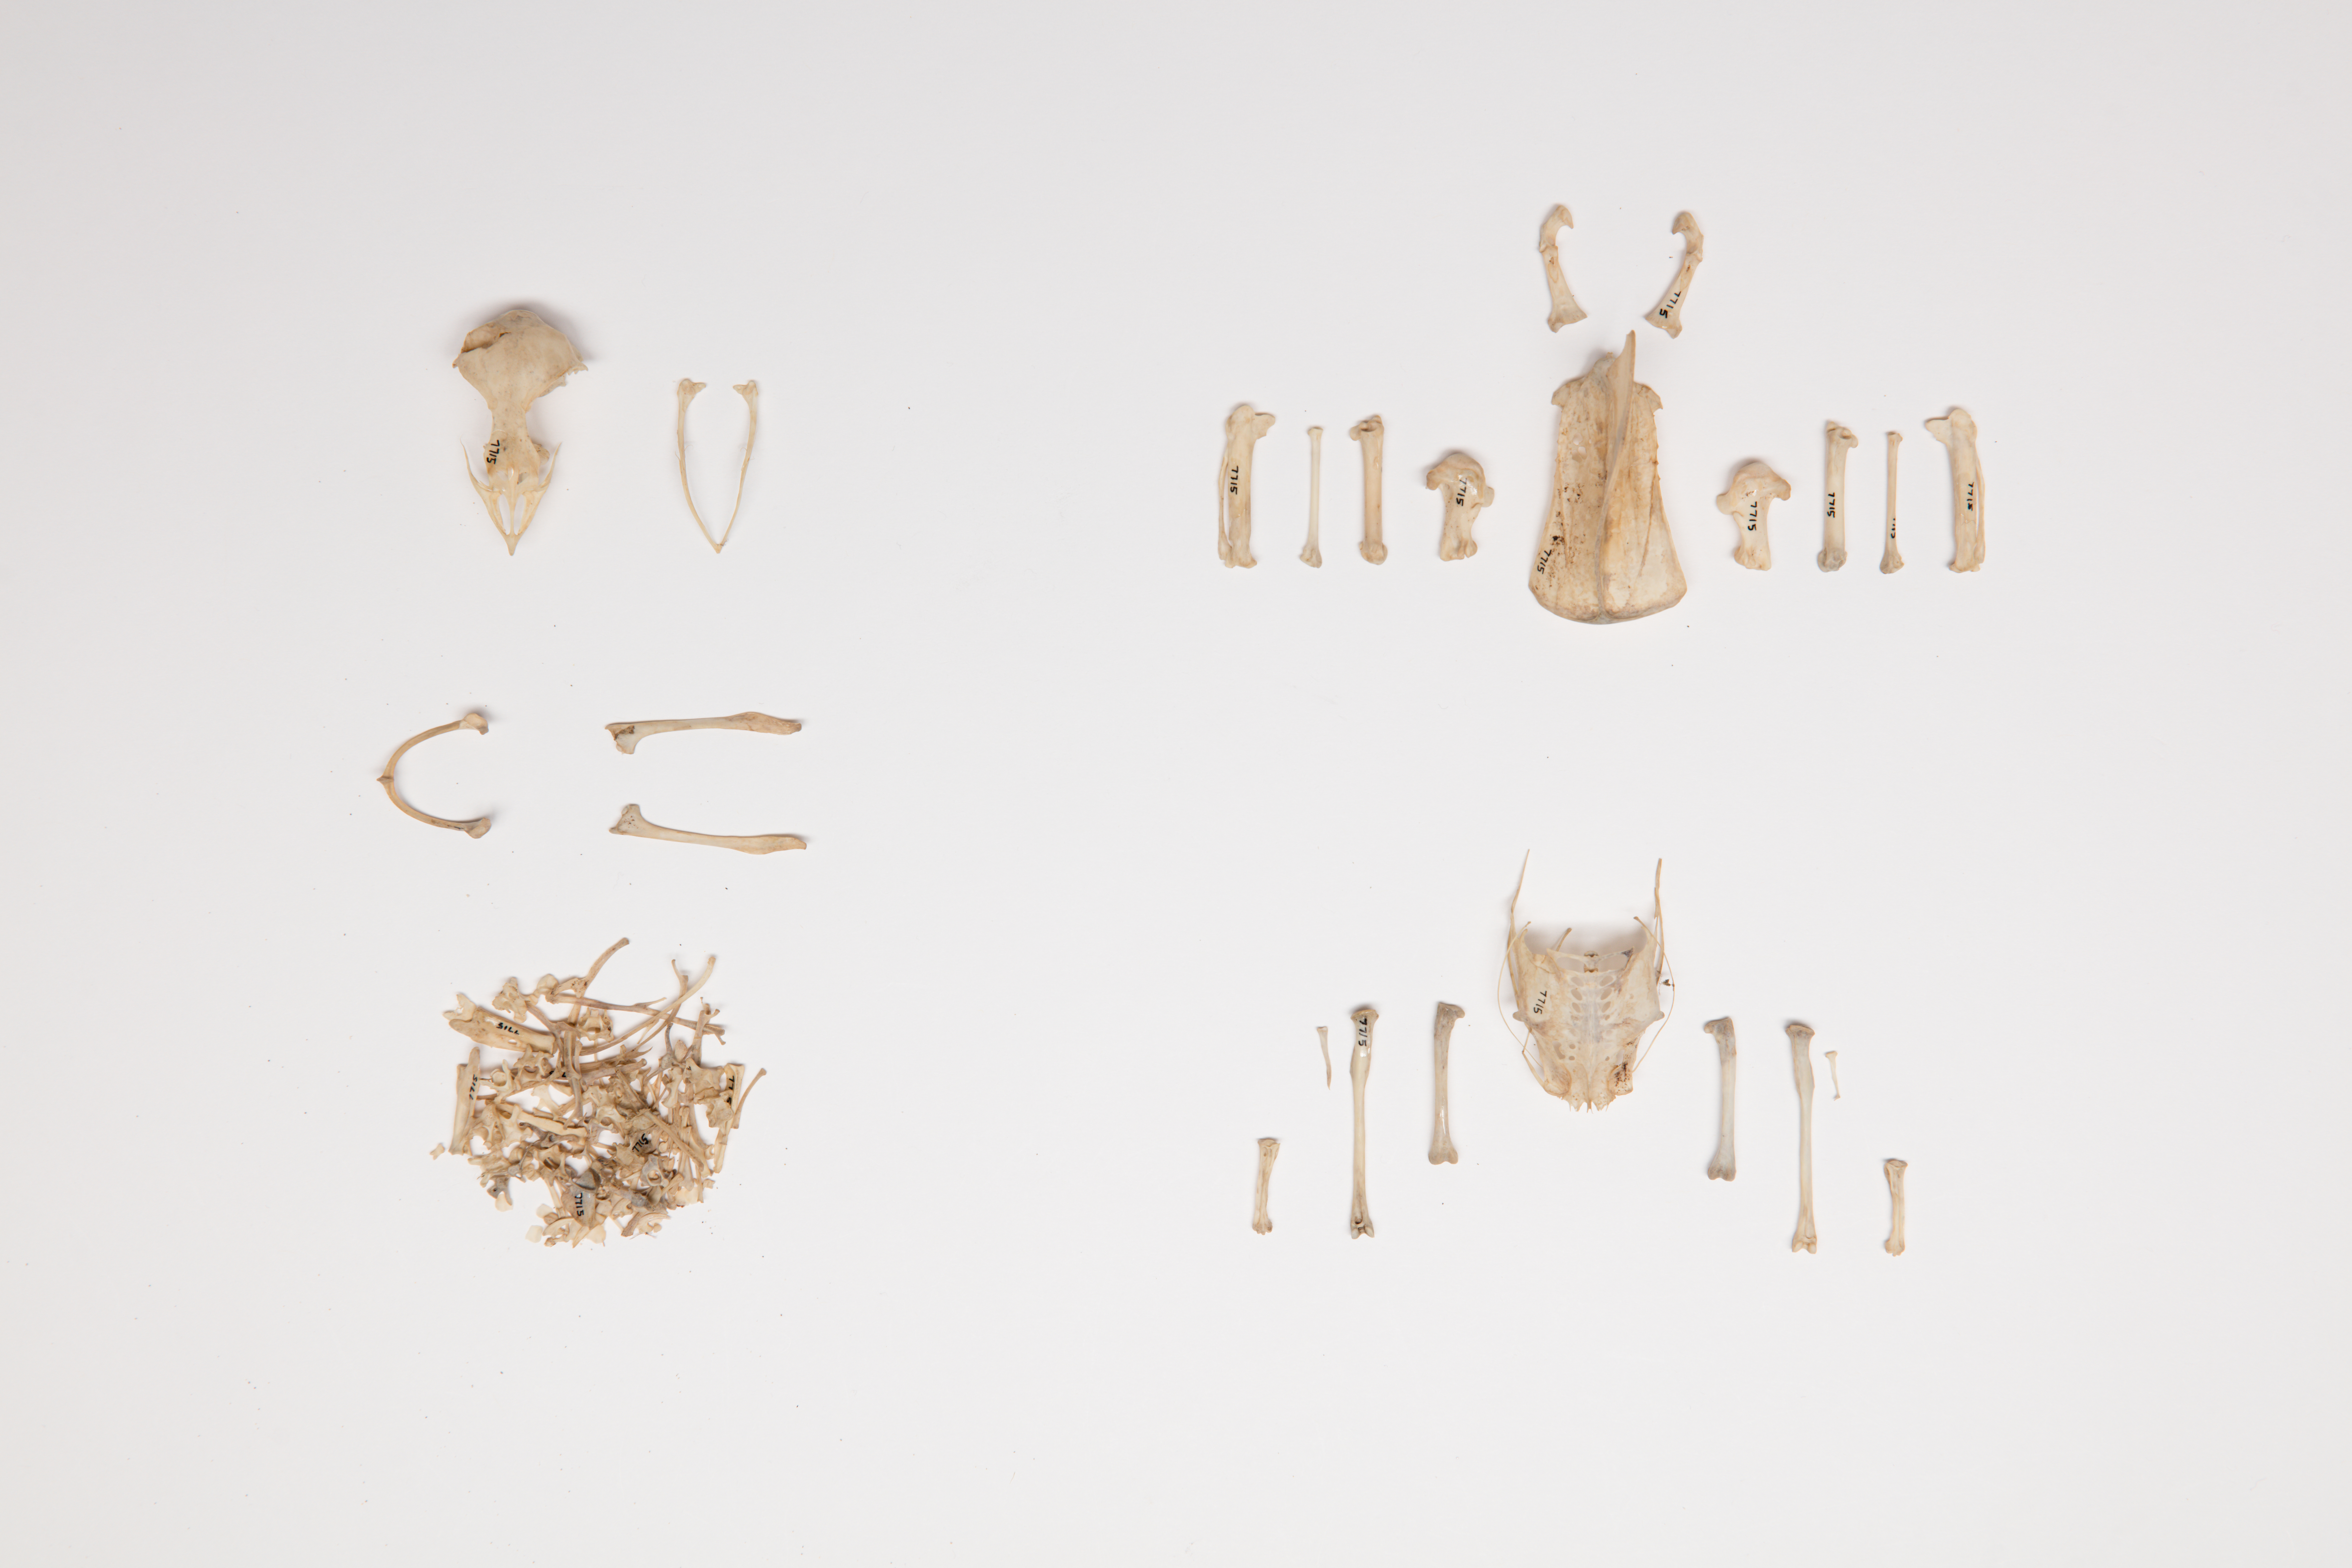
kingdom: Animalia
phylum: Chordata
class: Aves
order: Apodiformes
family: Apodidae
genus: Hirundapus
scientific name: Hirundapus caudacutus
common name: White-throated needletail
